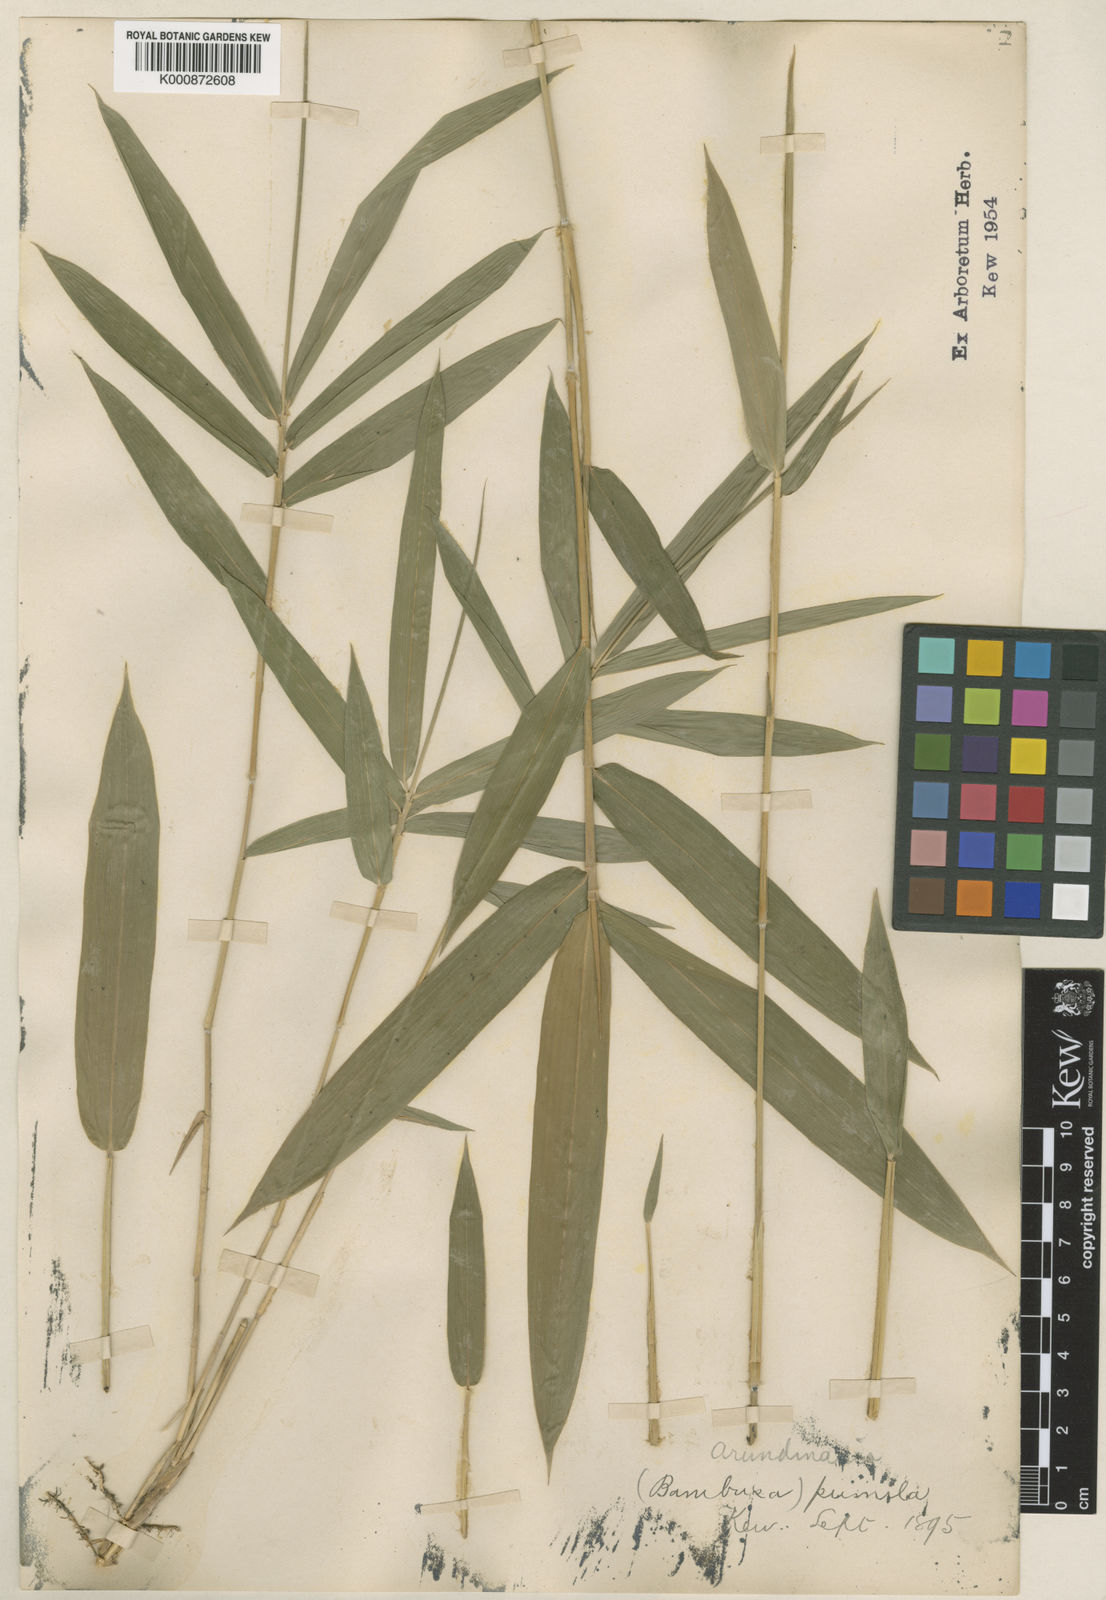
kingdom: Plantae
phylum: Tracheophyta
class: Liliopsida
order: Poales
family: Poaceae
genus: Pleioblastus
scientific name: Pleioblastus argenteostriatus
